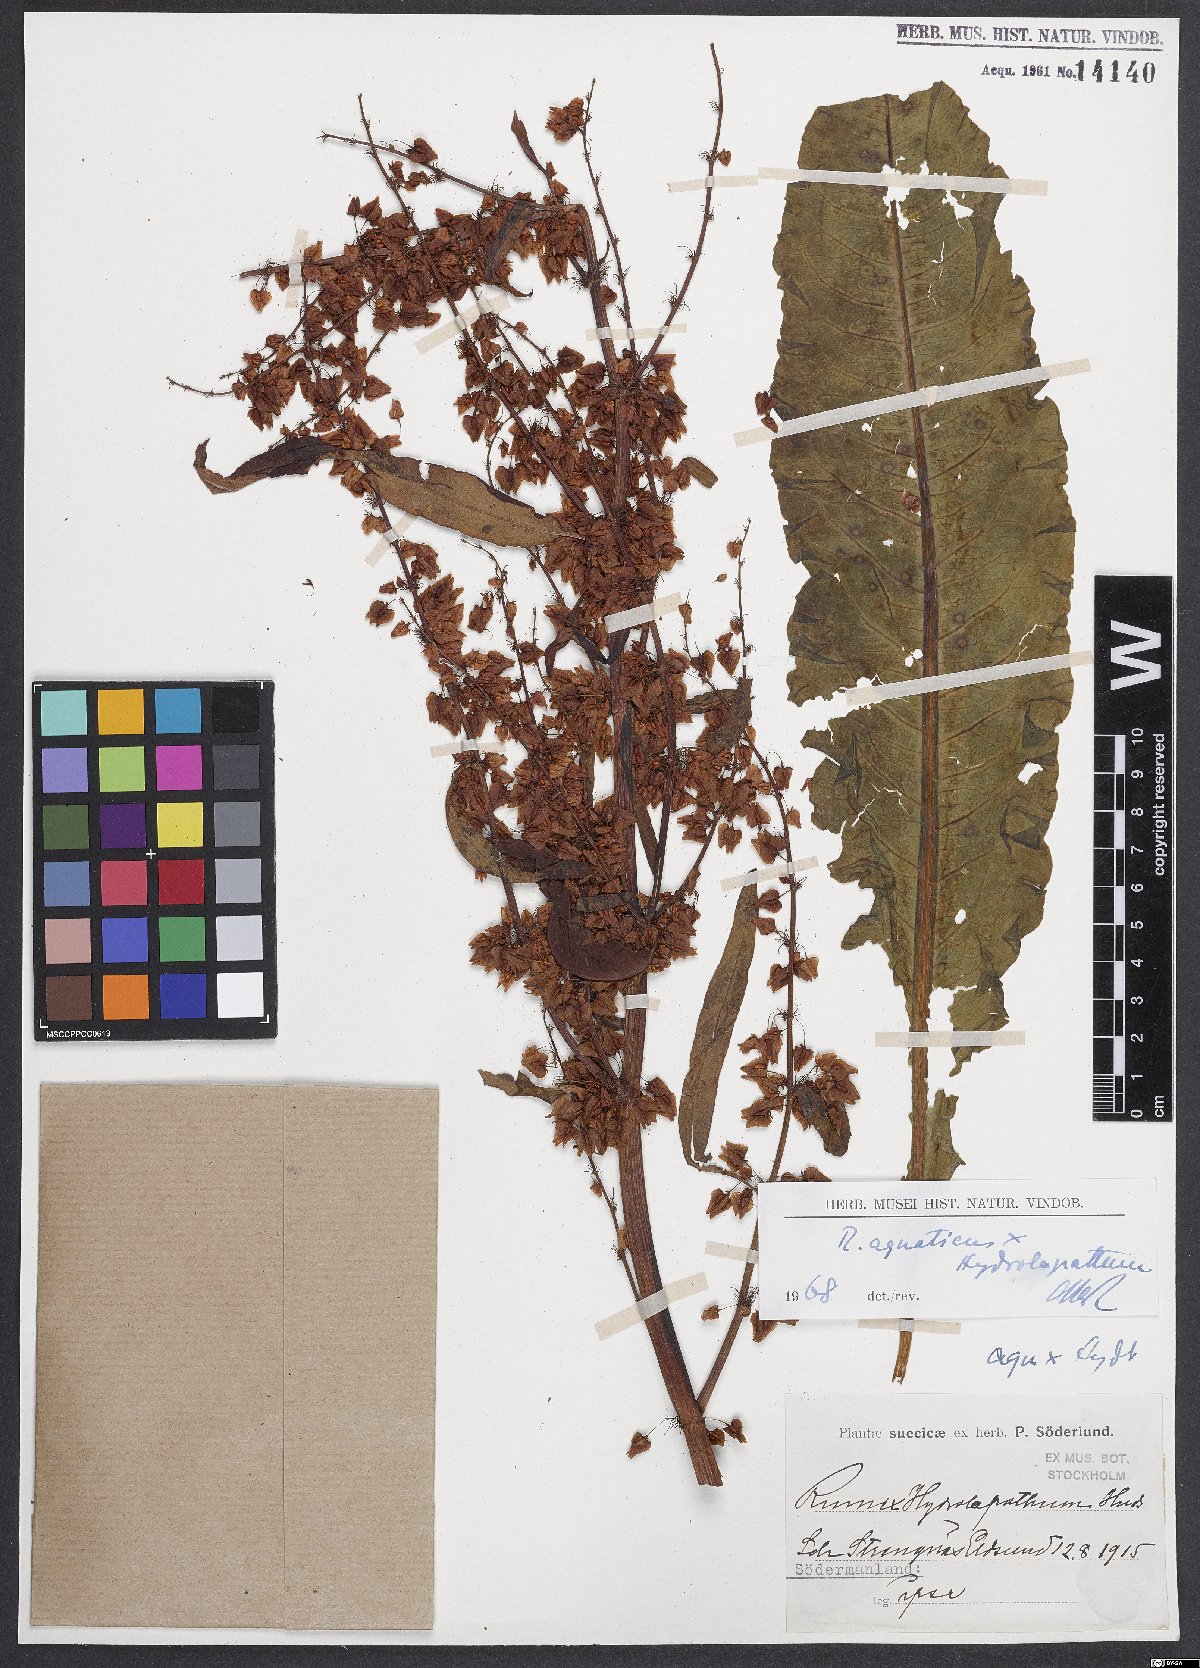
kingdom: Plantae
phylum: Tracheophyta
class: Magnoliopsida
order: Caryophyllales
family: Polygonaceae
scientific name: Polygonaceae
